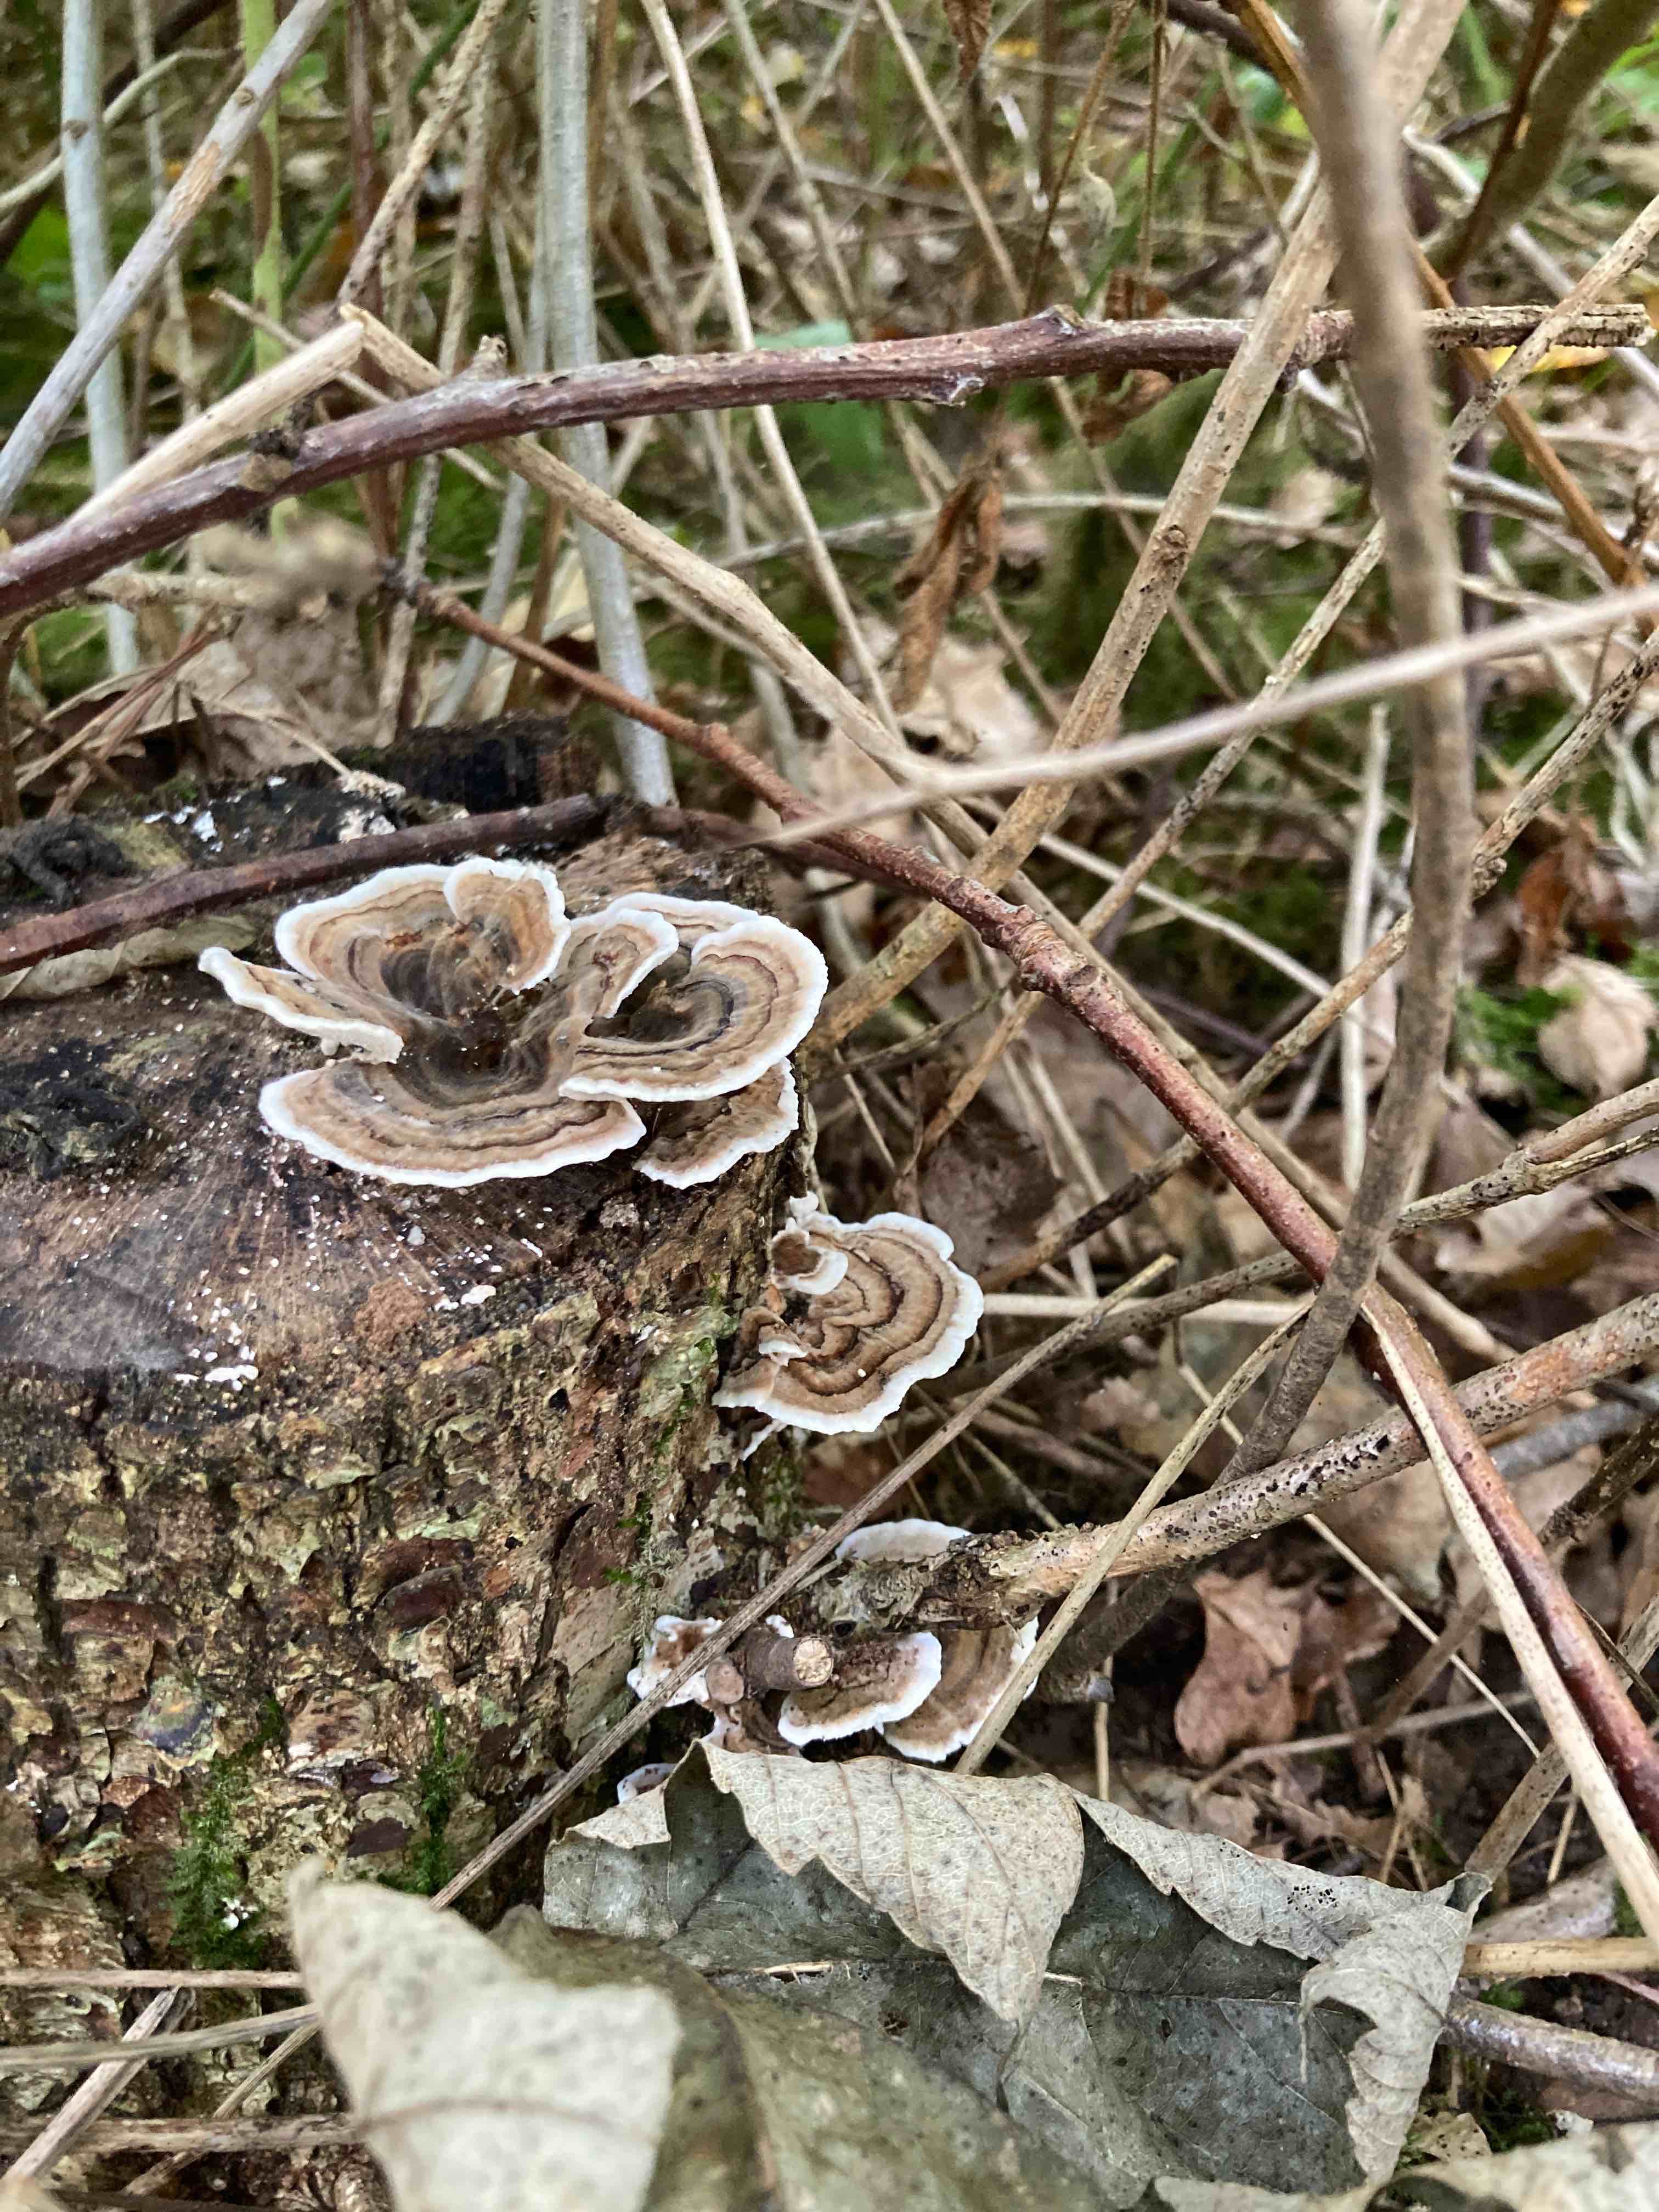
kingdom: Fungi
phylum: Basidiomycota
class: Agaricomycetes
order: Polyporales
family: Polyporaceae
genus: Trametes
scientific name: Trametes versicolor
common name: broget læderporesvamp
